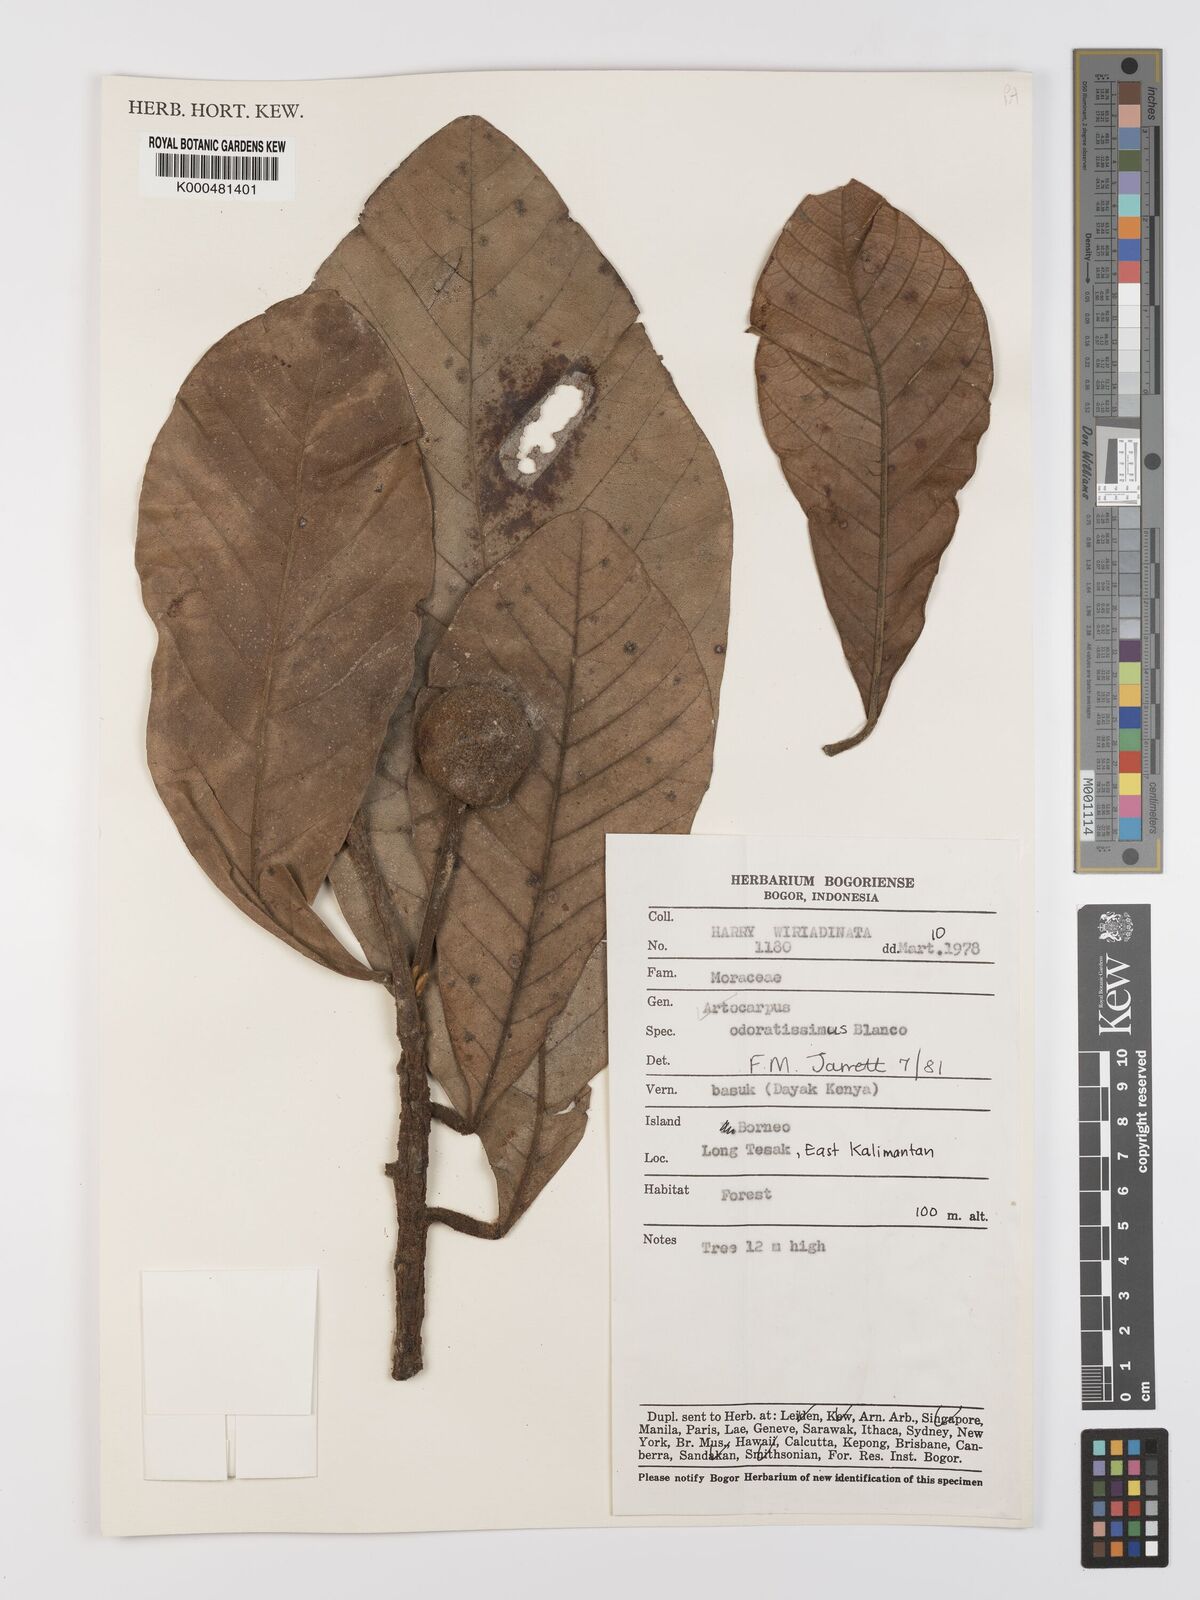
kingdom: Plantae
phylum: Tracheophyta
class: Magnoliopsida
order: Rosales
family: Moraceae
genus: Artocarpus
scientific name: Artocarpus odoratissimus
